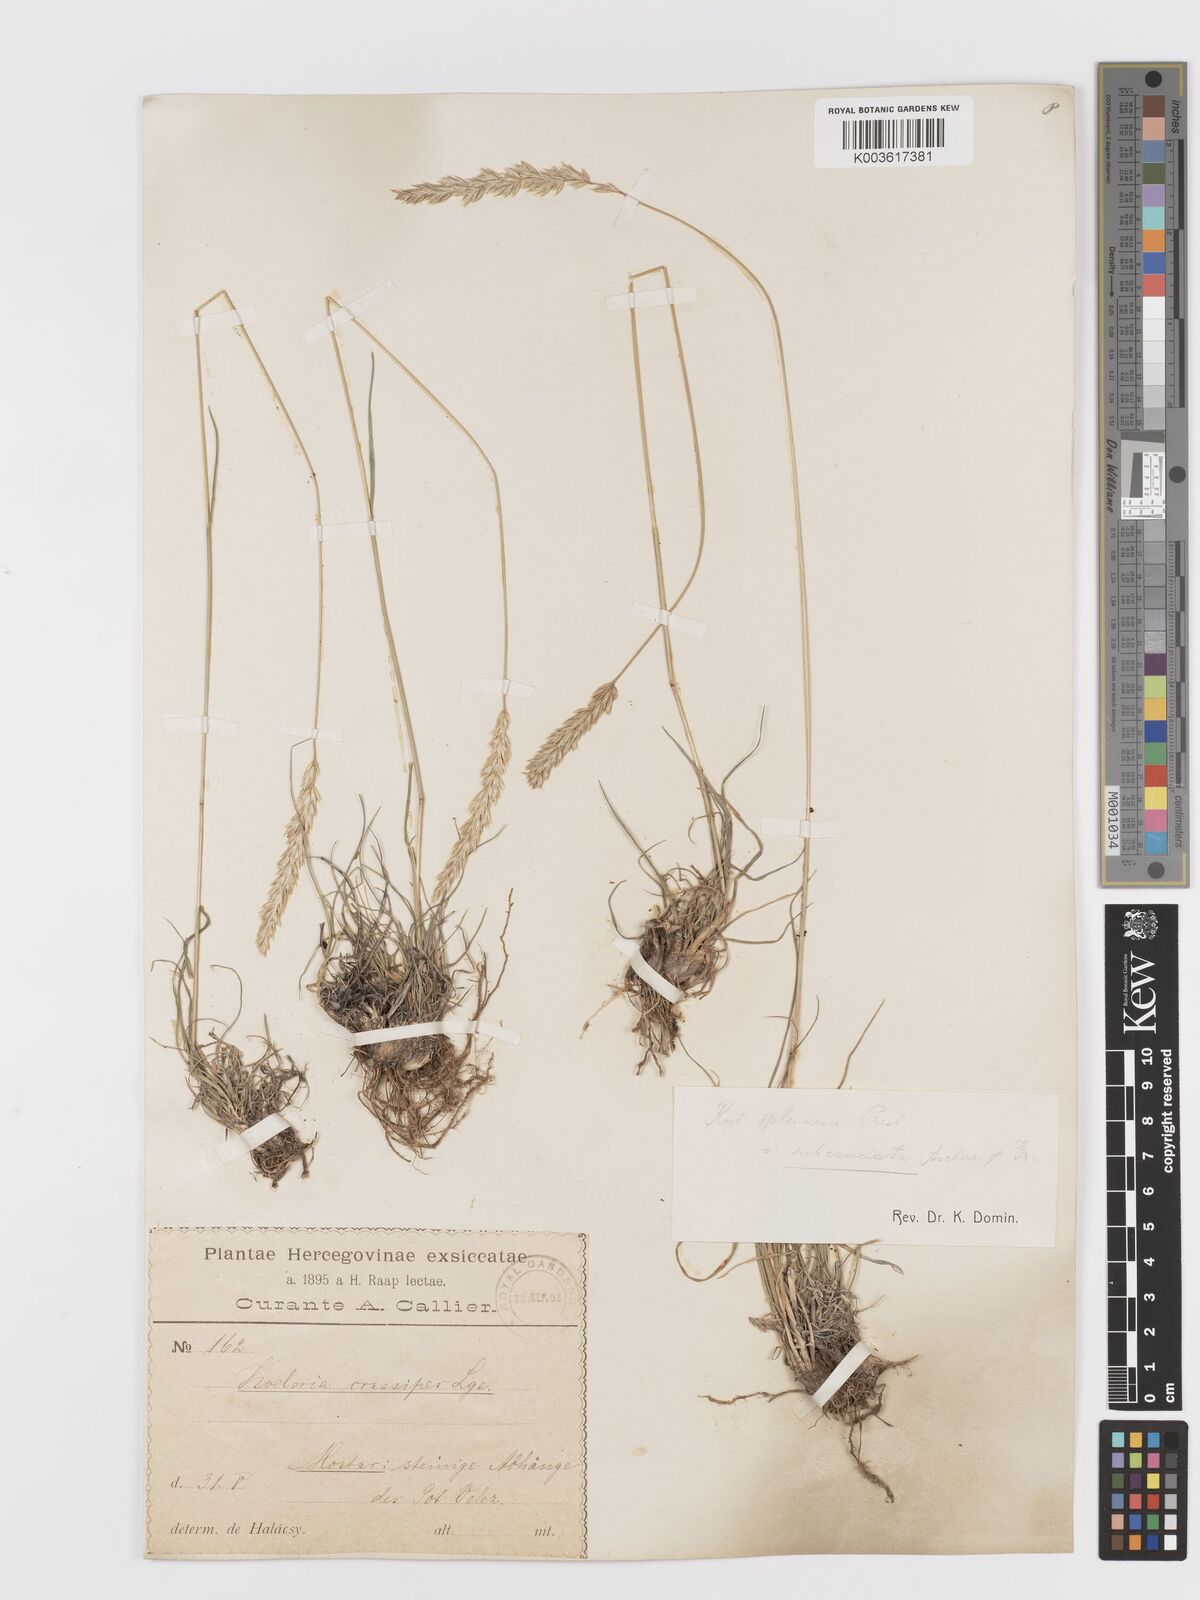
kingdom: Plantae
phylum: Tracheophyta
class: Liliopsida
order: Poales
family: Poaceae
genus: Koeleria
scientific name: Koeleria splendens
